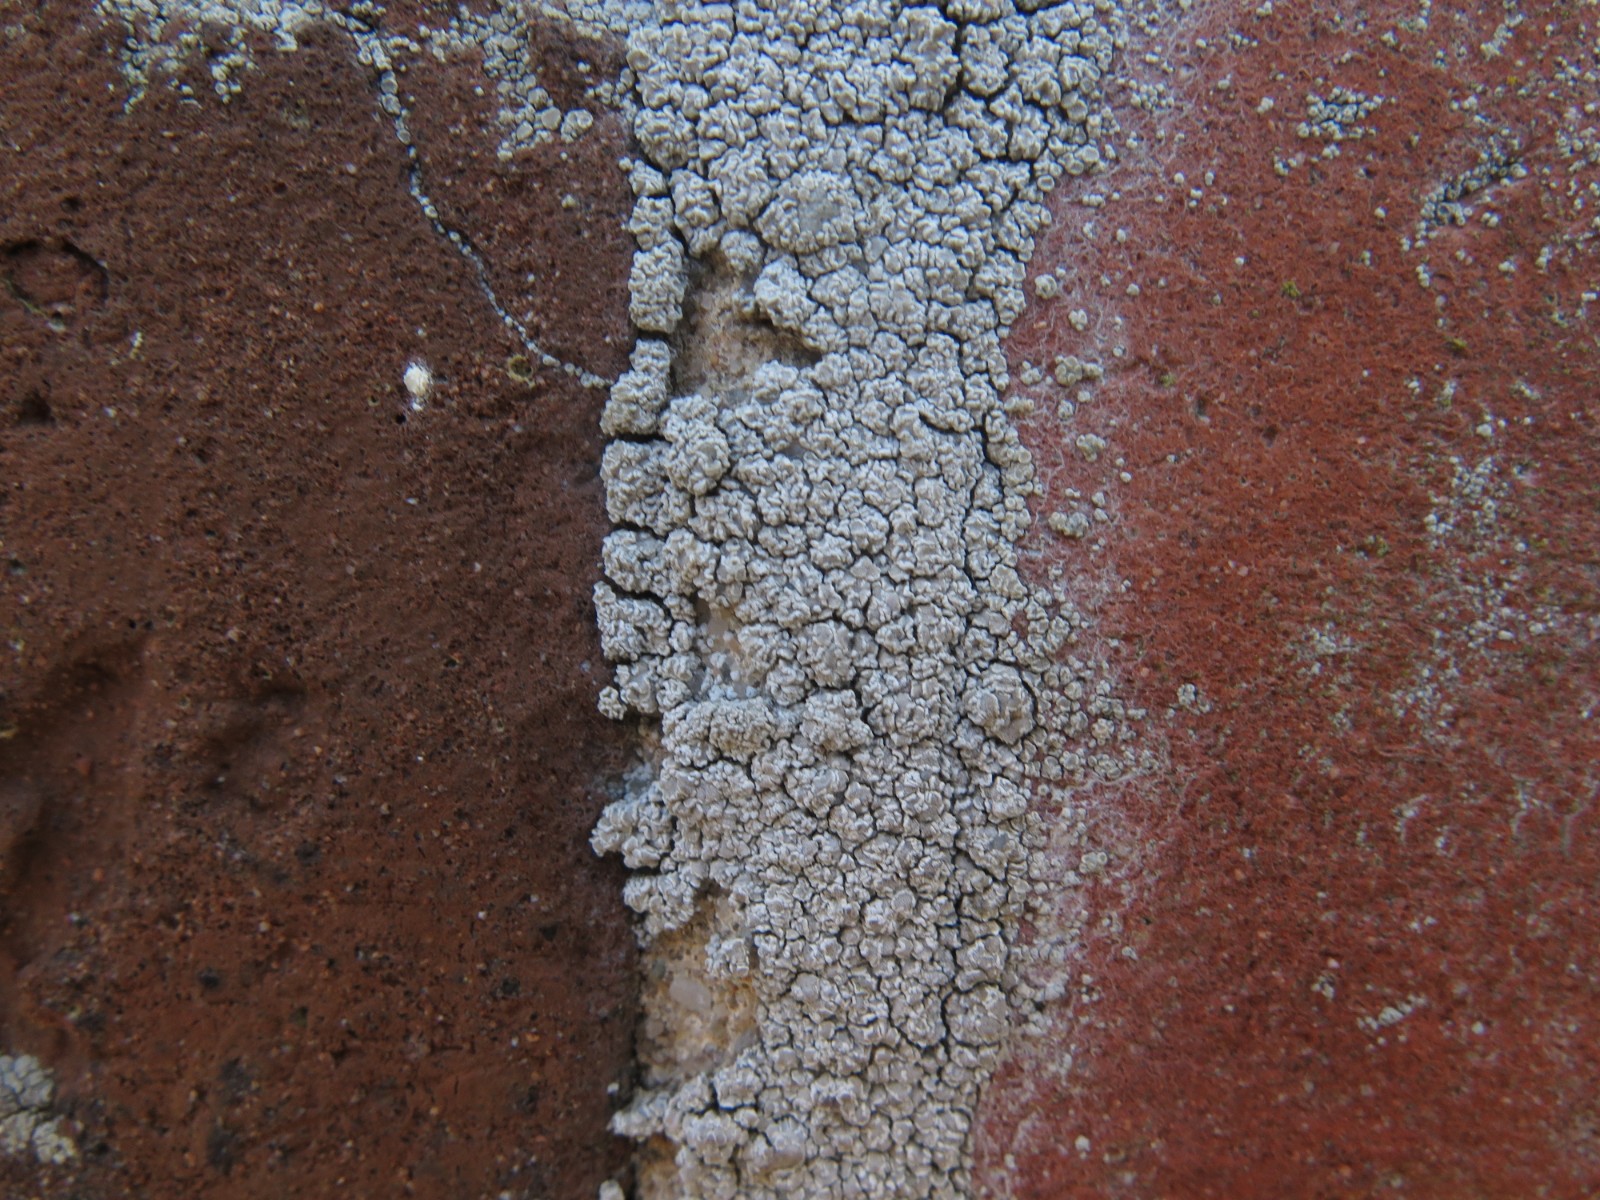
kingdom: Fungi
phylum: Ascomycota
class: Lecanoromycetes
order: Lecanorales
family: Lecanoraceae
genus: Polyozosia
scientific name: Polyozosia albescens
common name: cement-kantskivelav
